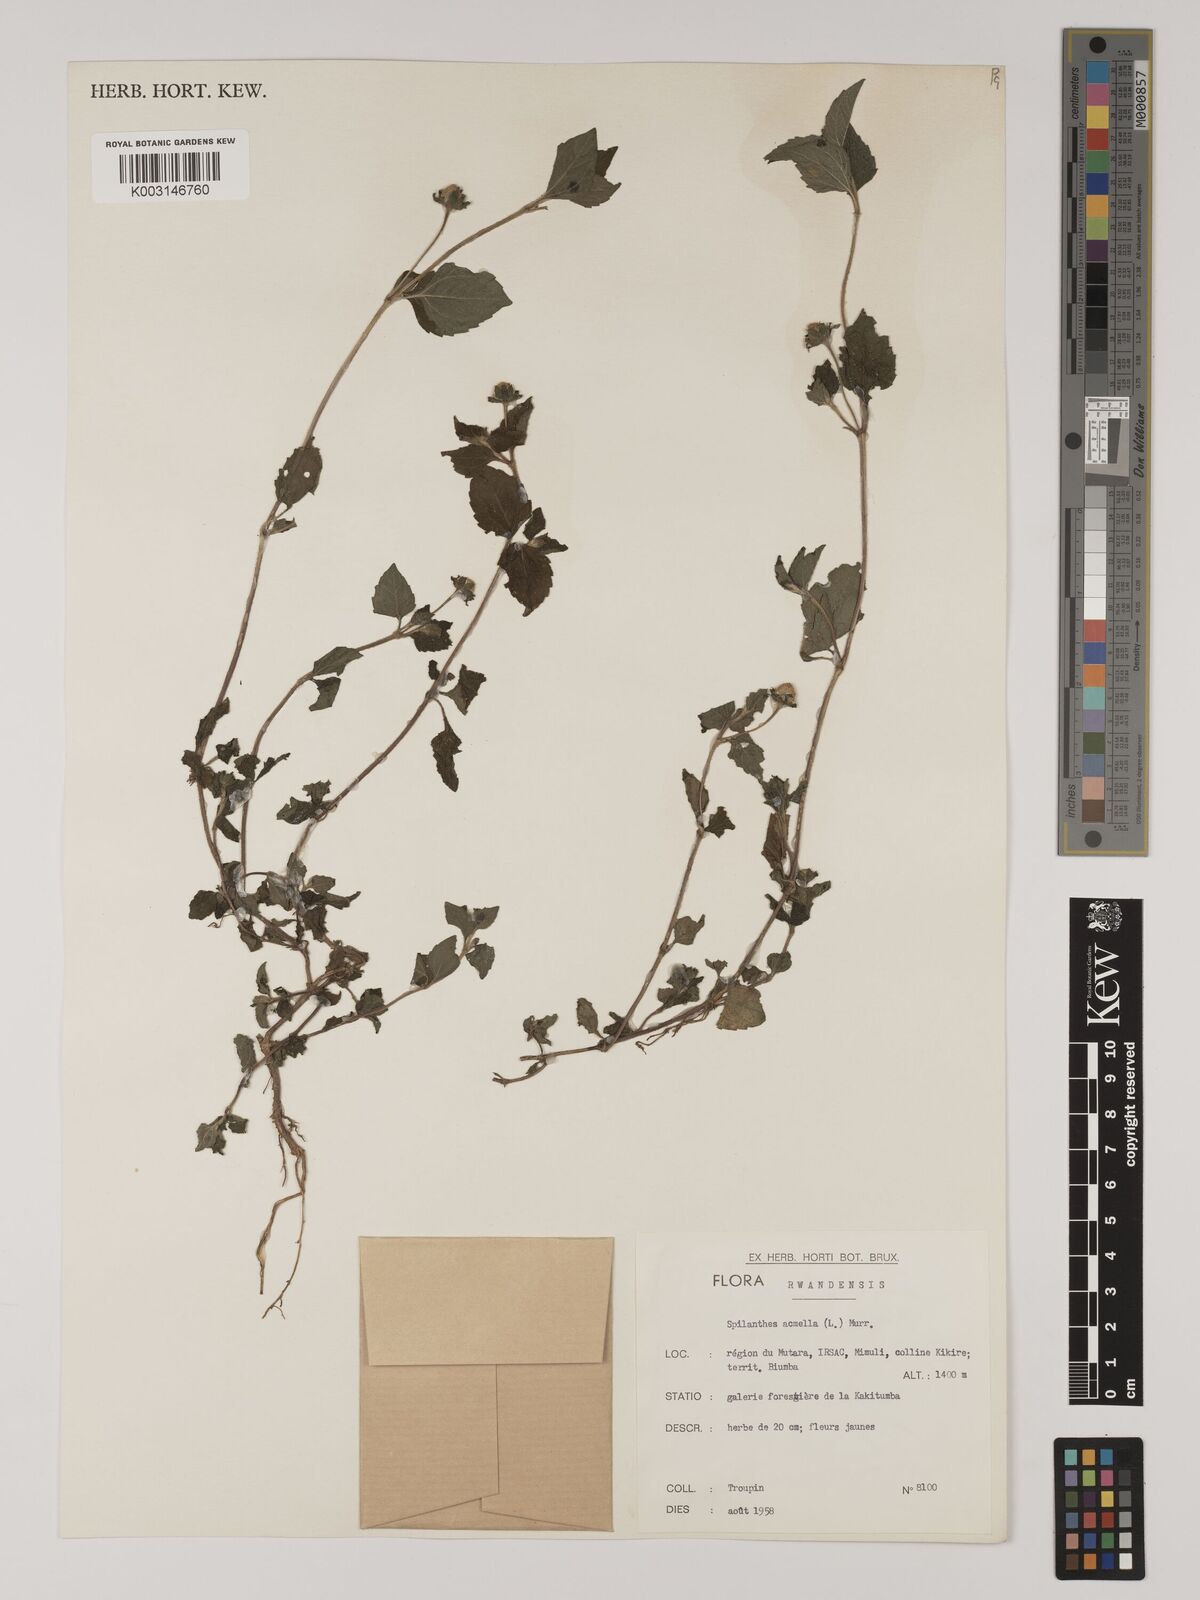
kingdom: Plantae
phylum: Tracheophyta
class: Magnoliopsida
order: Asterales
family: Asteraceae
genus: Blainvillea
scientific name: Blainvillea acmella
